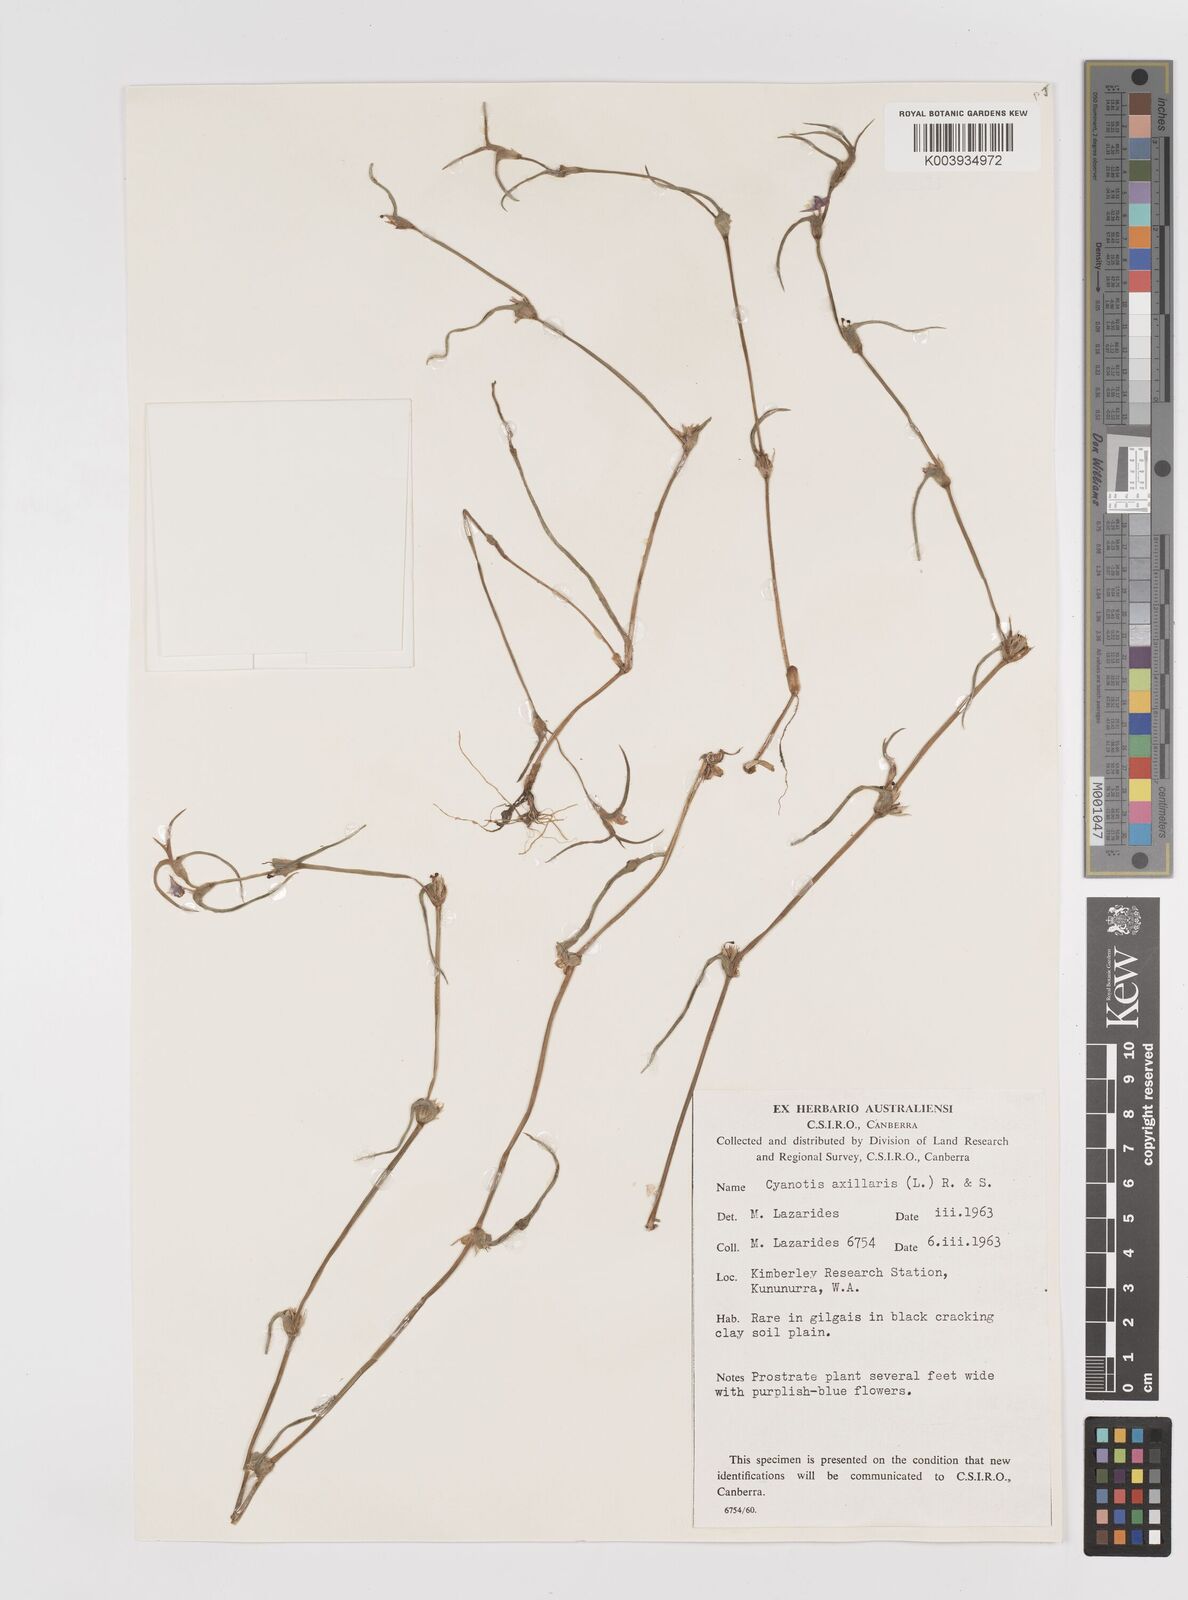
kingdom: Plantae
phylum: Tracheophyta
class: Liliopsida
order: Commelinales
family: Commelinaceae
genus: Cyanotis
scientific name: Cyanotis axillaris
